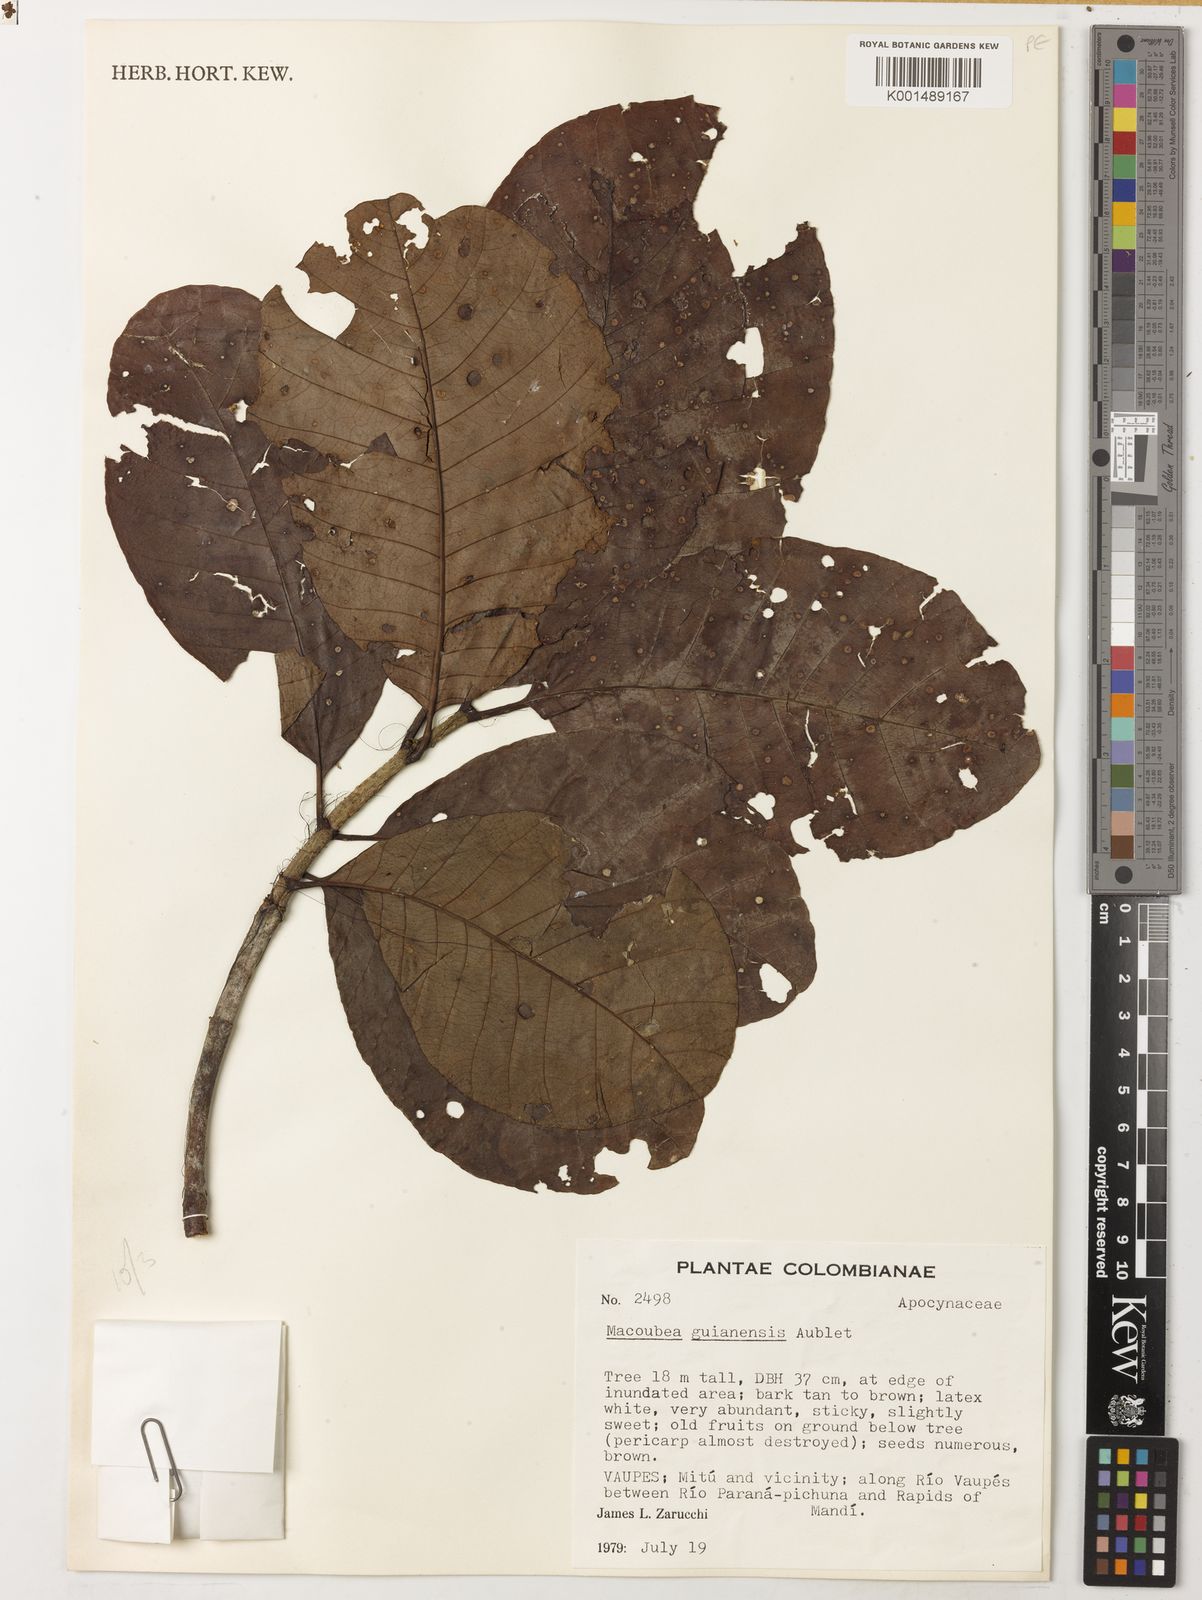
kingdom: Plantae
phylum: Tracheophyta
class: Magnoliopsida
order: Gentianales
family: Apocynaceae
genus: Macoubea
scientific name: Macoubea guianensis
